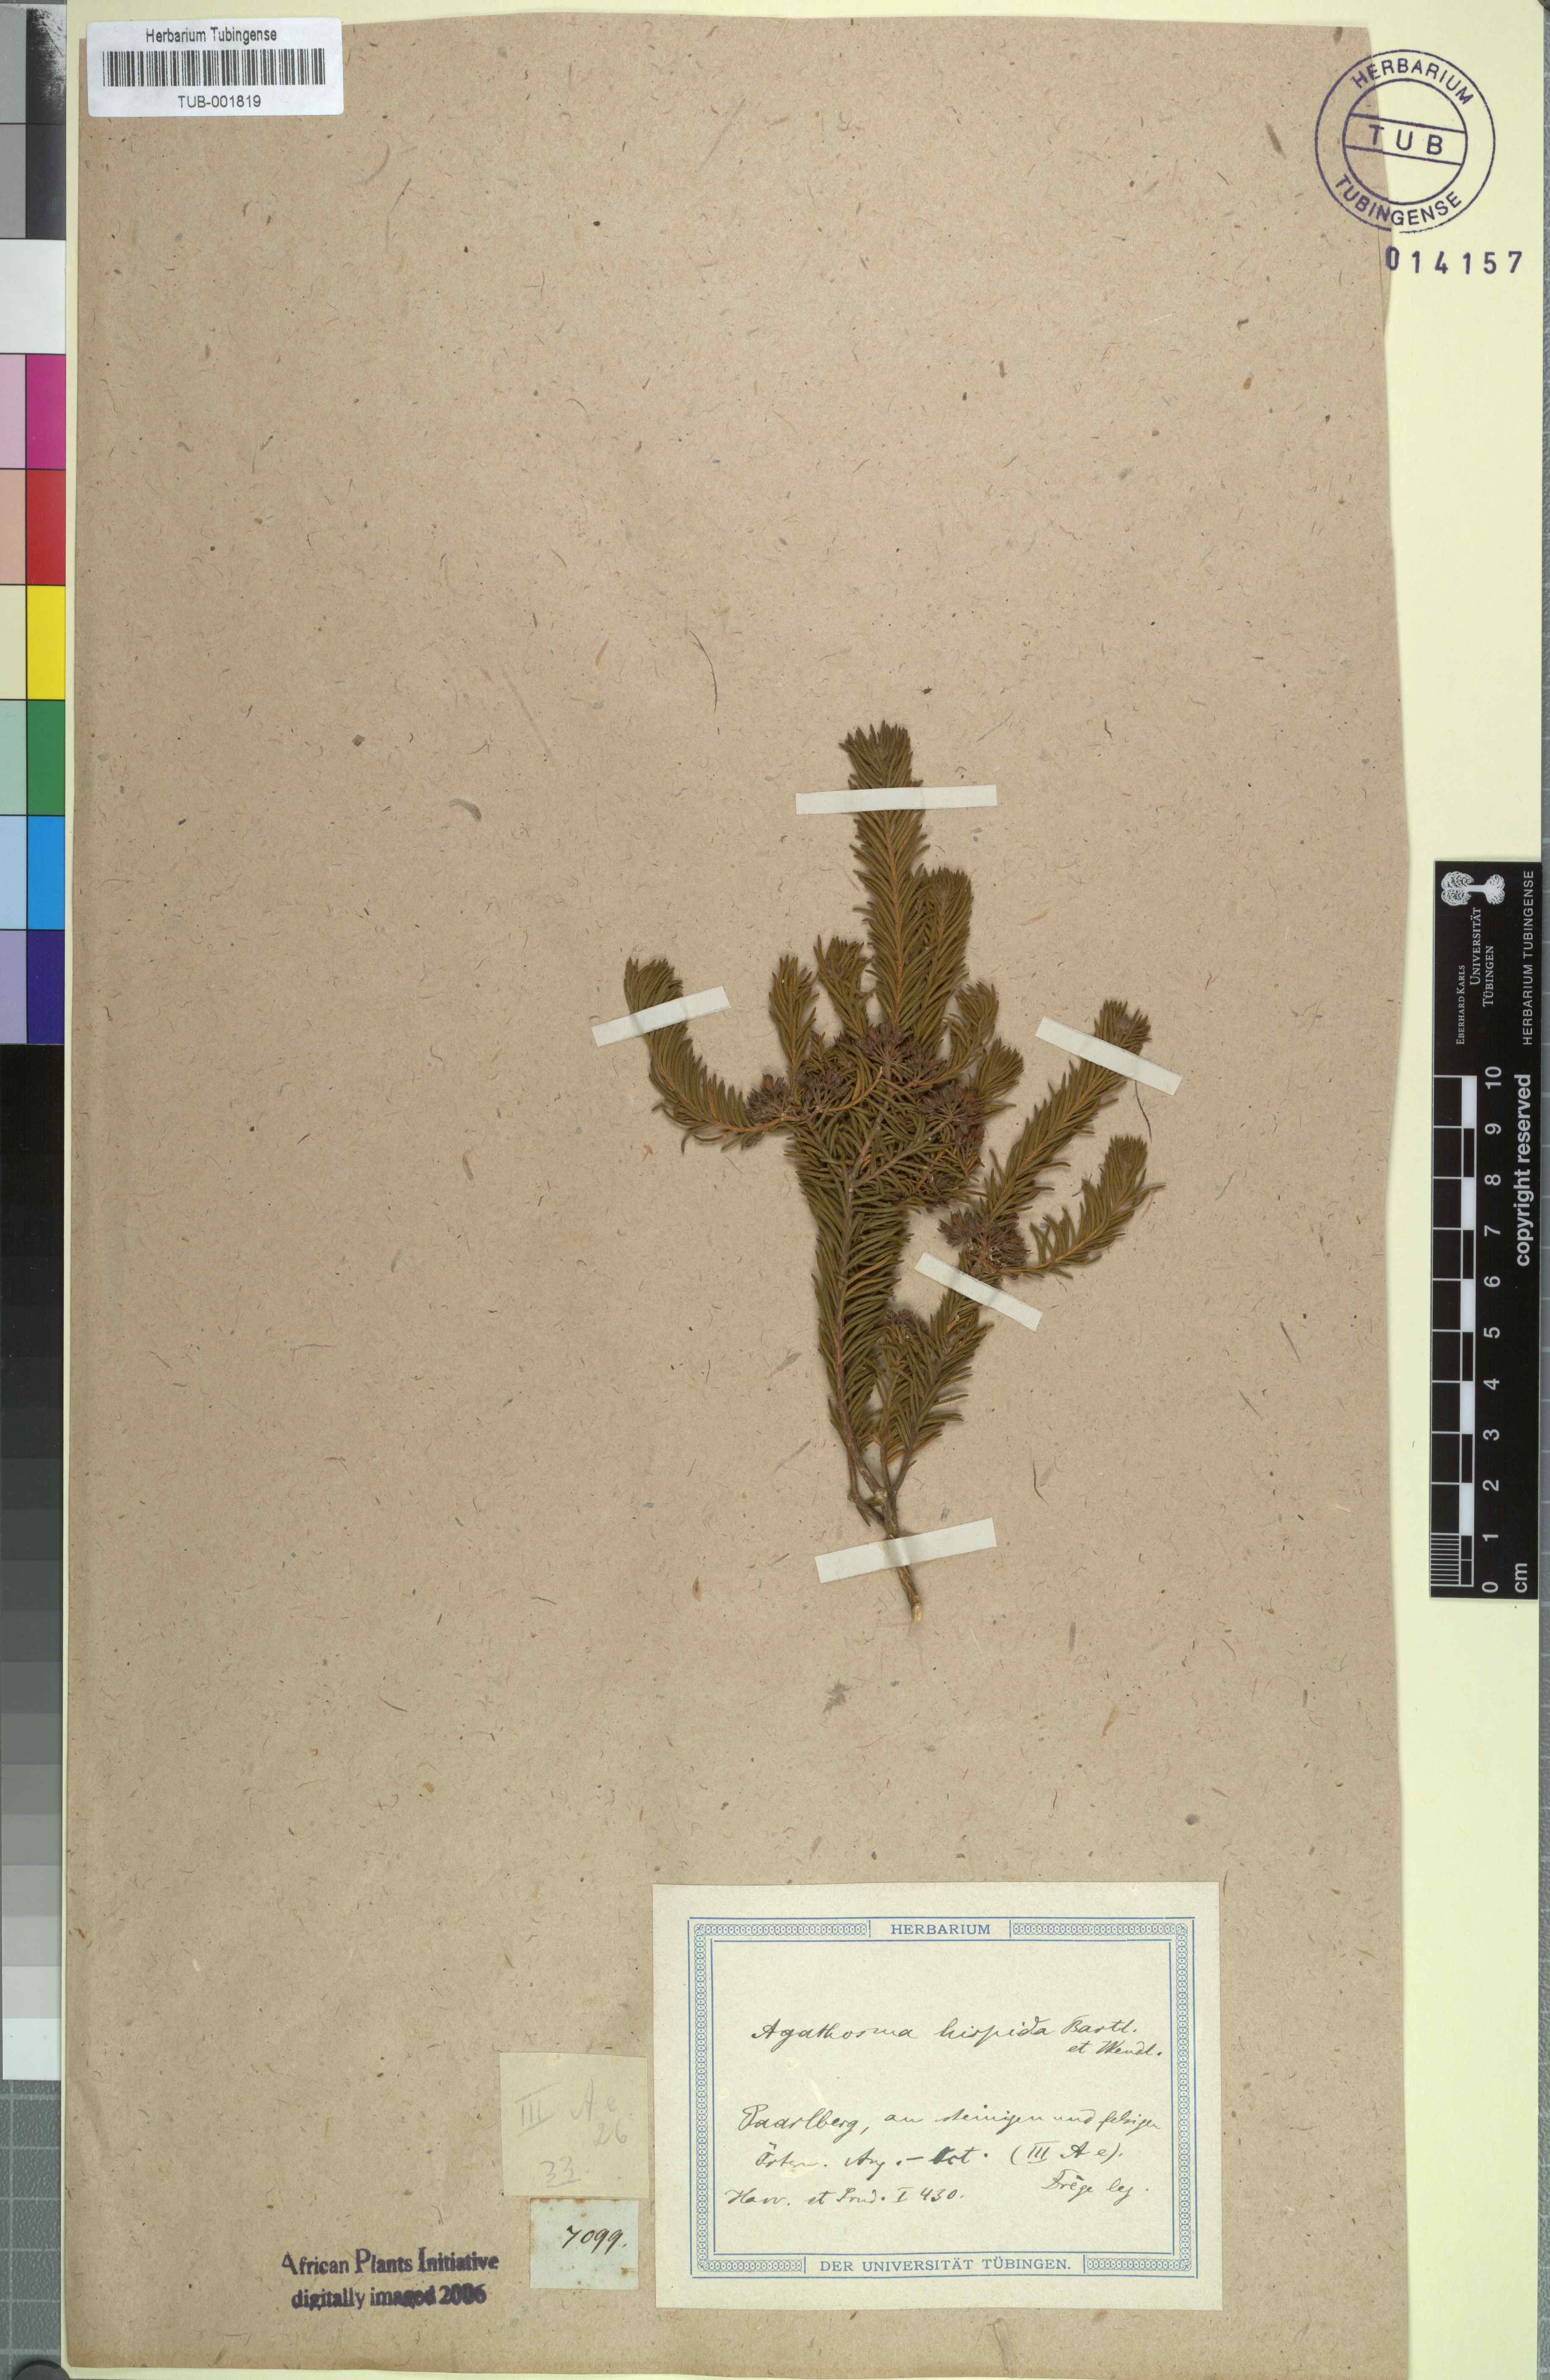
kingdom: Plantae
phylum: Tracheophyta
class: Magnoliopsida
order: Sapindales
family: Rutaceae
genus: Agathosma
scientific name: Agathosma hispida
